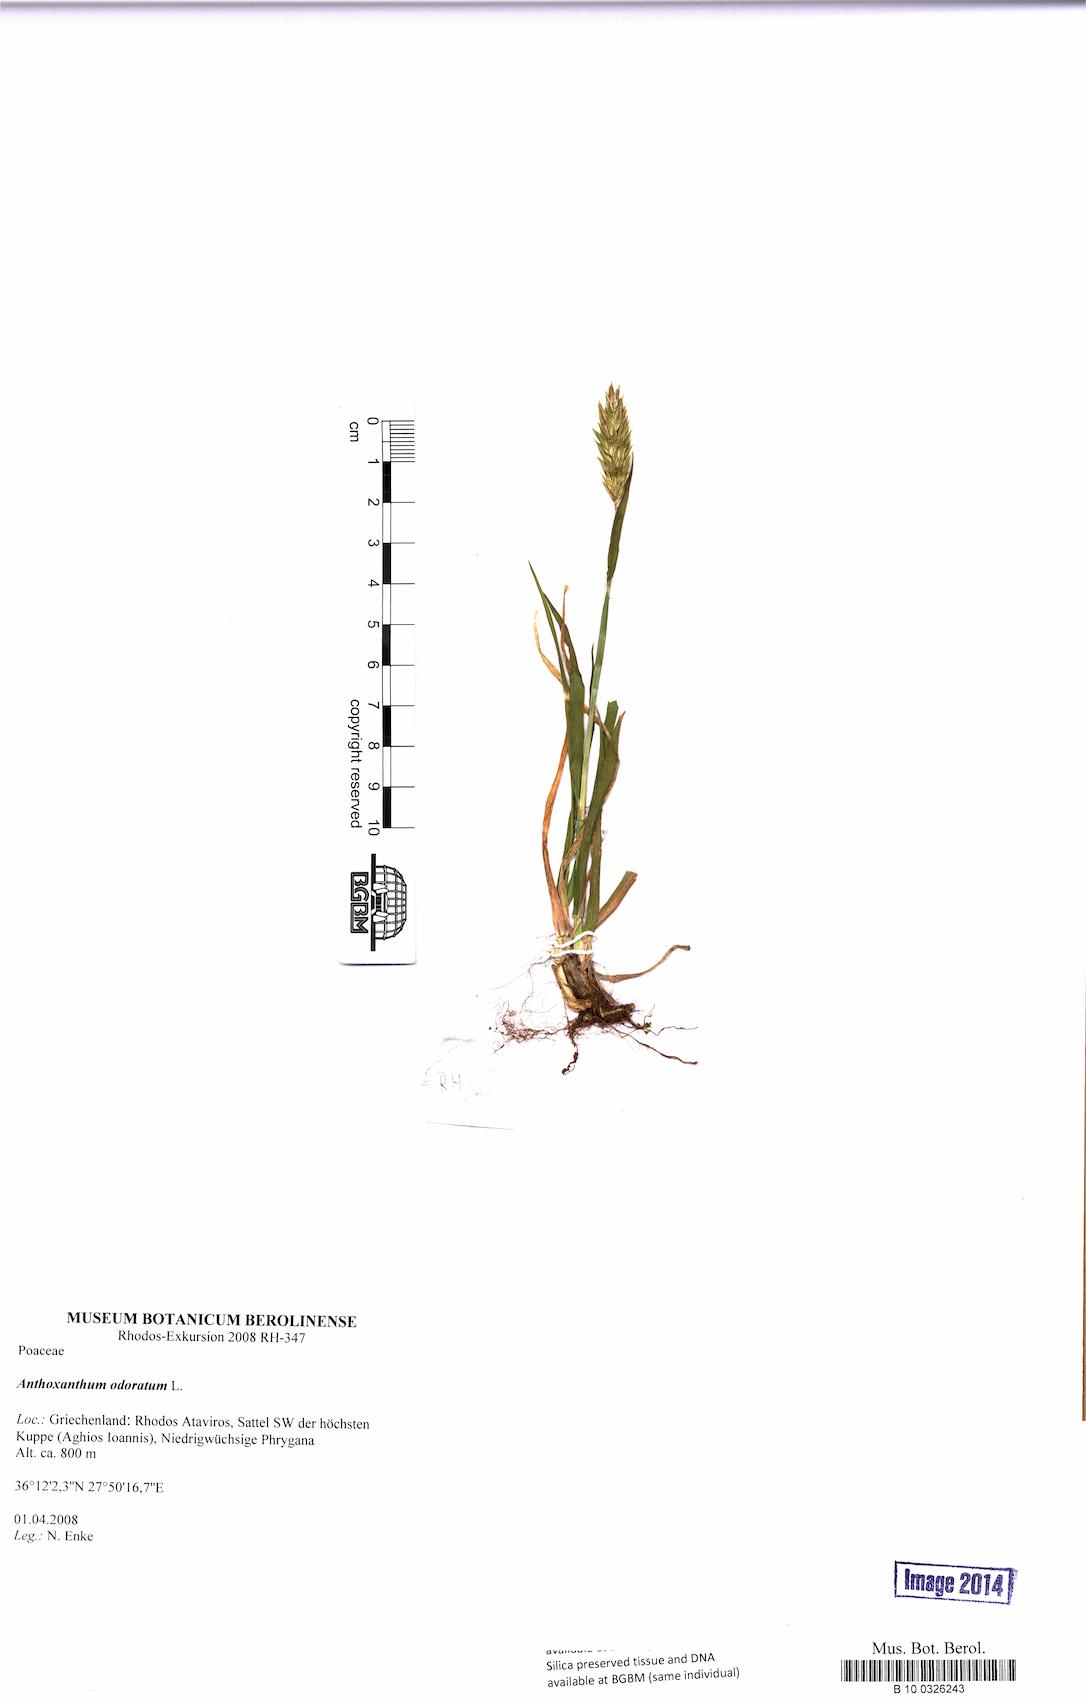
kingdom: Plantae
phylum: Tracheophyta
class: Liliopsida
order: Poales
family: Poaceae
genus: Anthoxanthum
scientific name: Anthoxanthum odoratum
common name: Sweet vernalgrass
